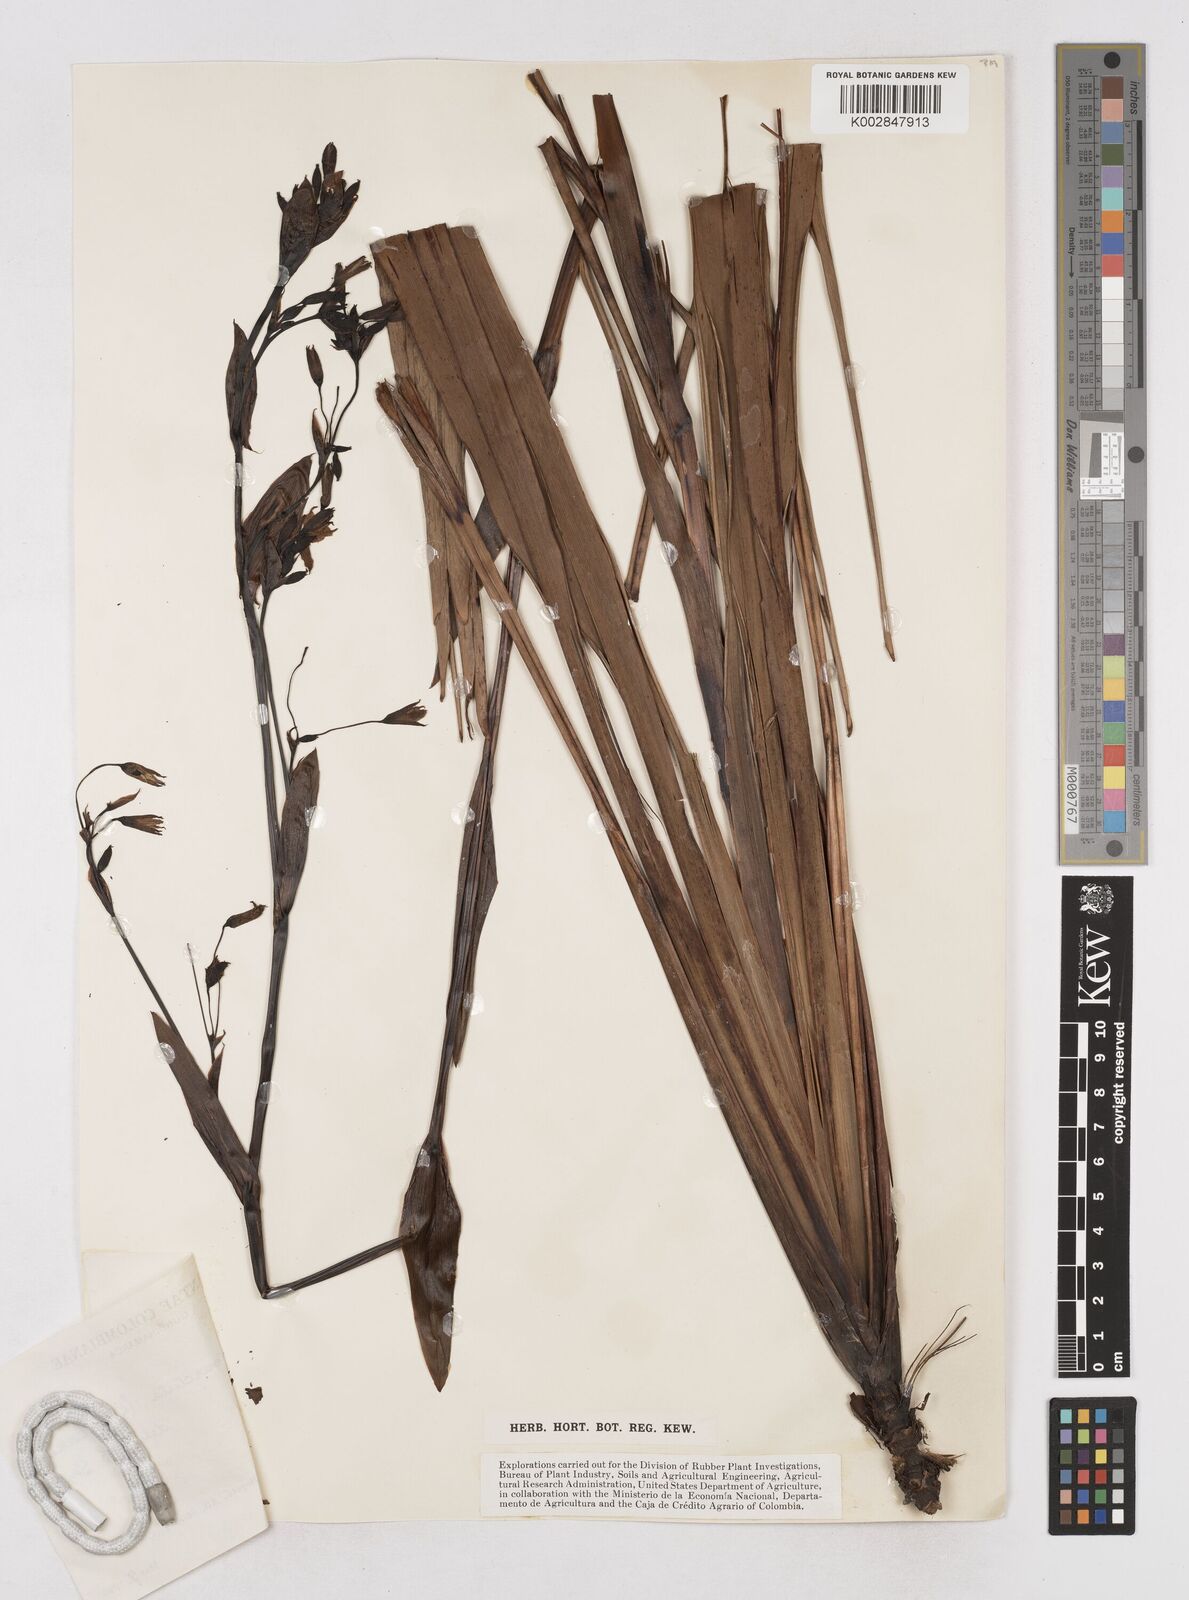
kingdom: Plantae
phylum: Tracheophyta
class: Liliopsida
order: Asparagales
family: Asphodelaceae
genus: Excremis
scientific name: Excremis coarctata
